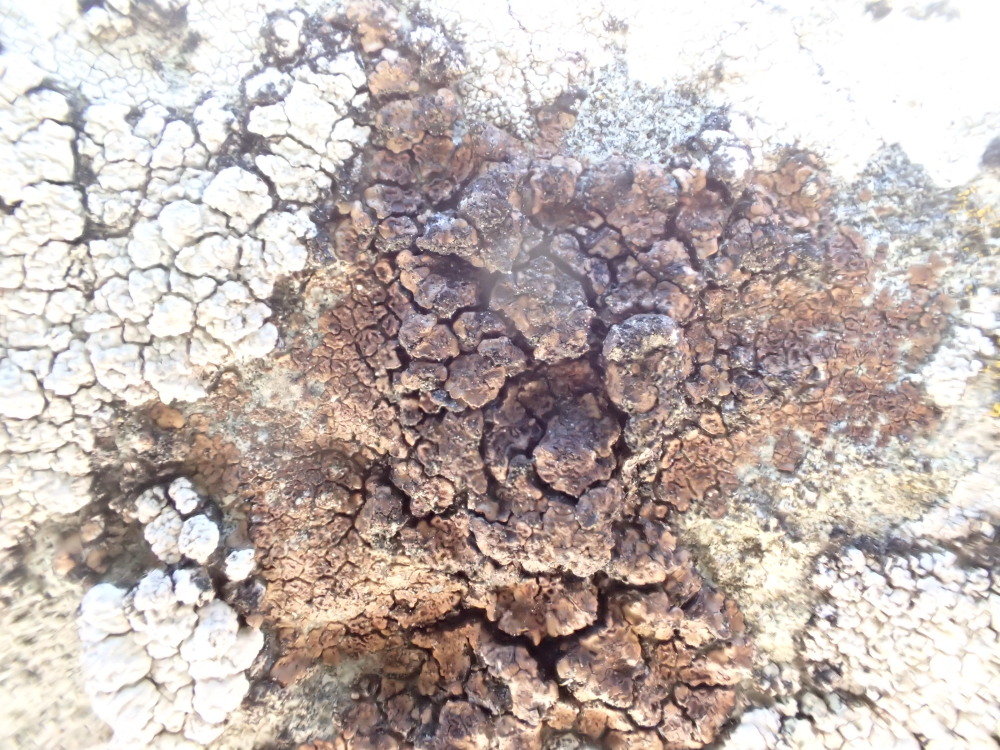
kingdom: Fungi
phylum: Ascomycota
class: Lecanoromycetes
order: Acarosporales
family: Acarosporaceae
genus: Acarospora
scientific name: Acarospora fuscata
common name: brun småsporelav
